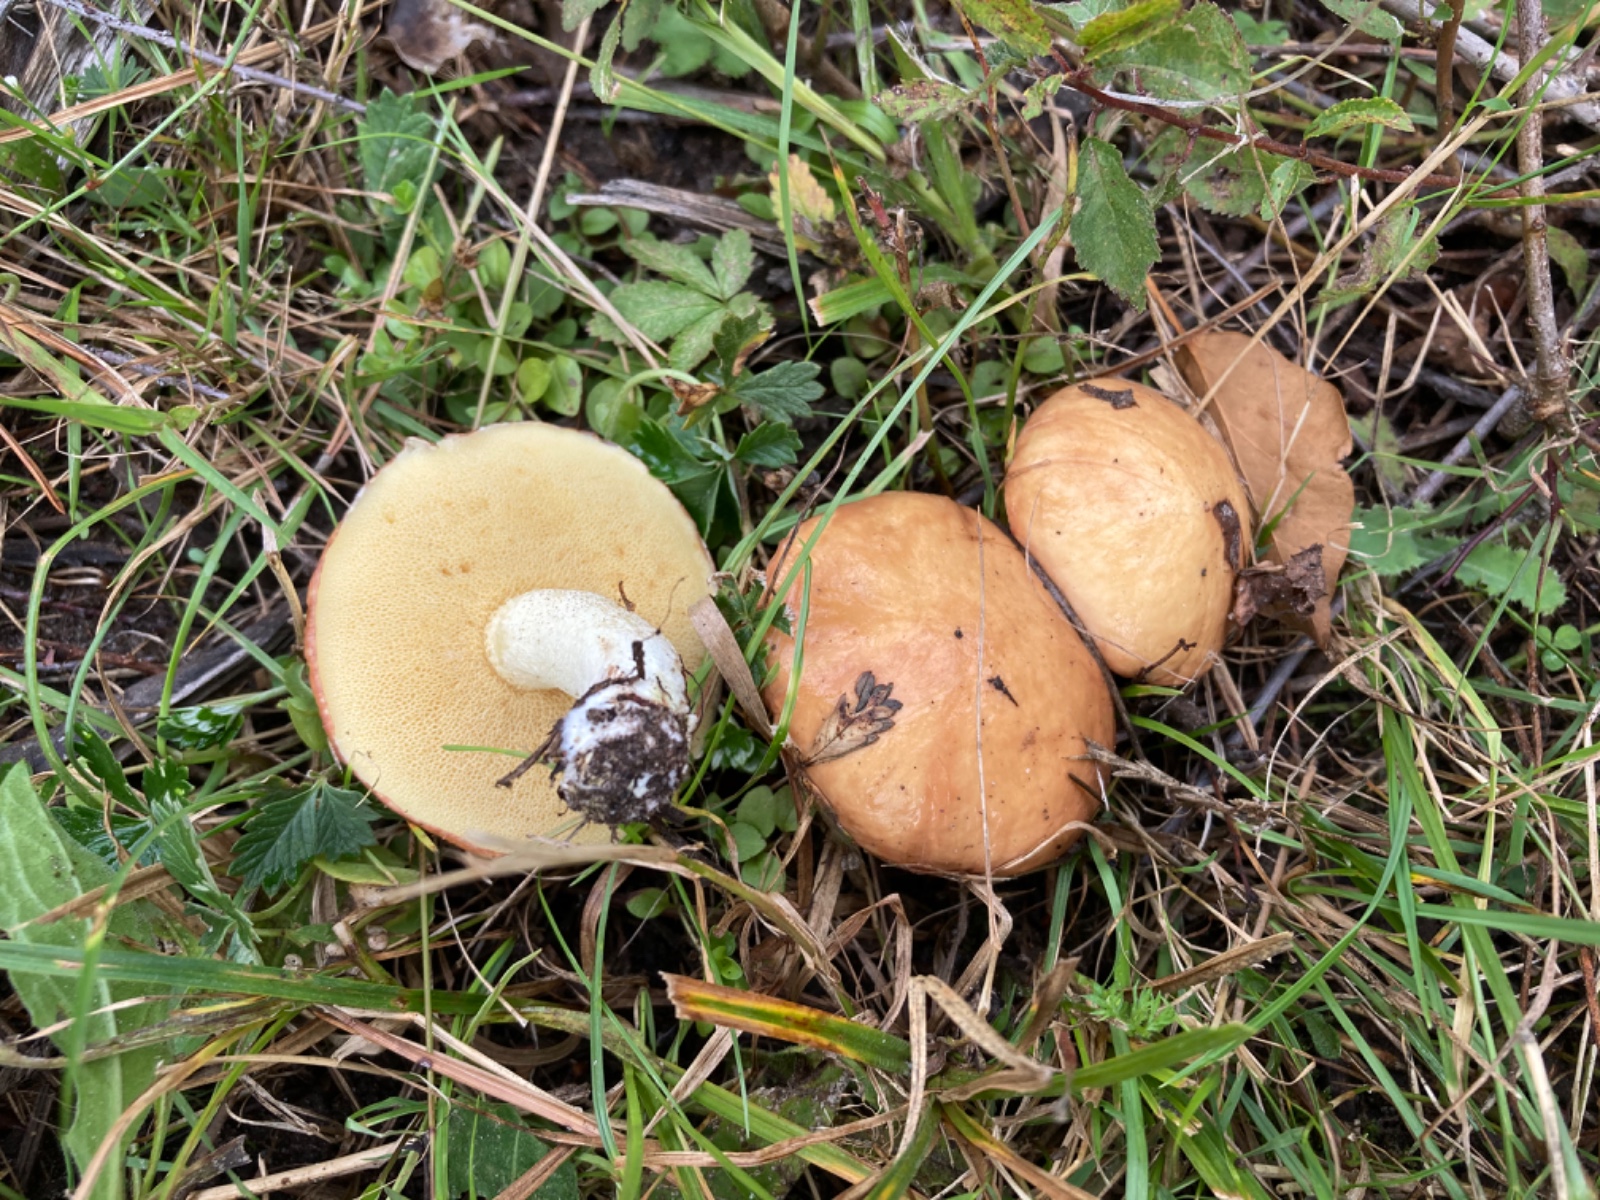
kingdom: Fungi
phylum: Basidiomycota
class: Agaricomycetes
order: Boletales
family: Suillaceae
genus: Suillus
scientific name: Suillus granulatus
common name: kornet slimrørhat
